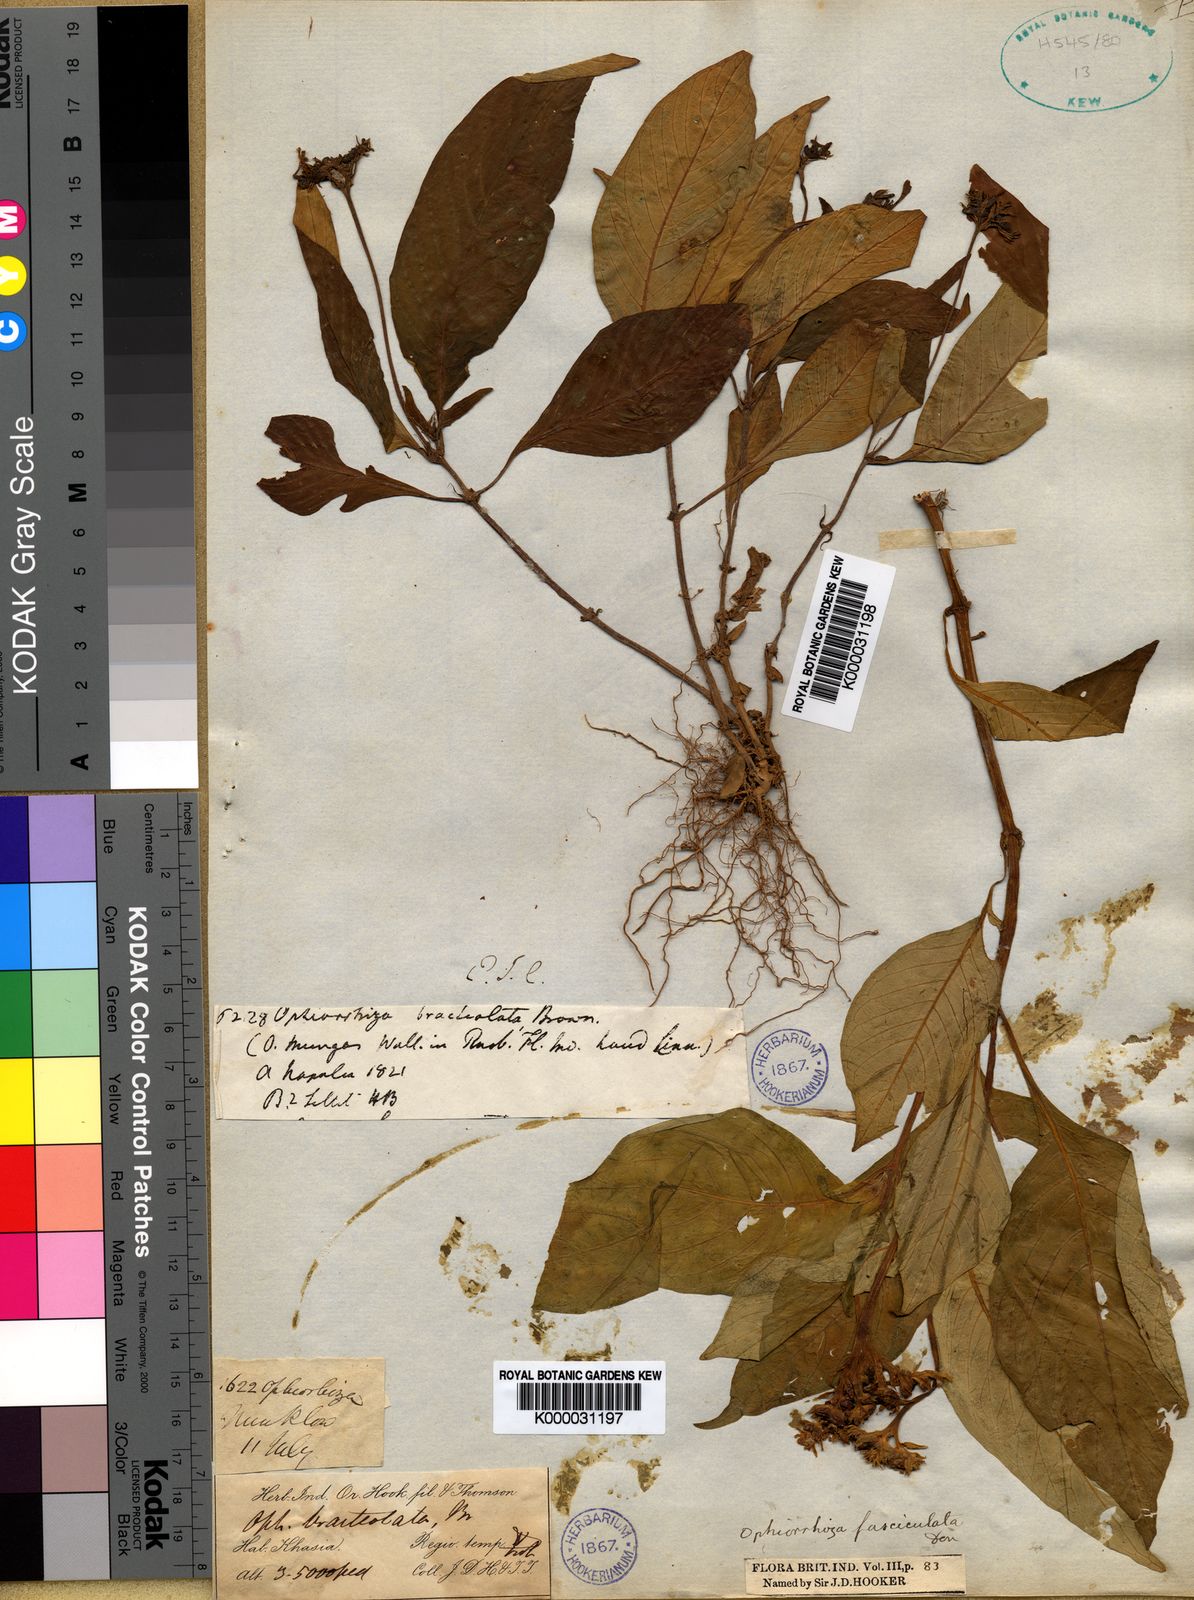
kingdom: Plantae
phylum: Tracheophyta
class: Magnoliopsida
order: Gentianales
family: Rubiaceae
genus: Ophiorrhiza
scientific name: Ophiorrhiza
